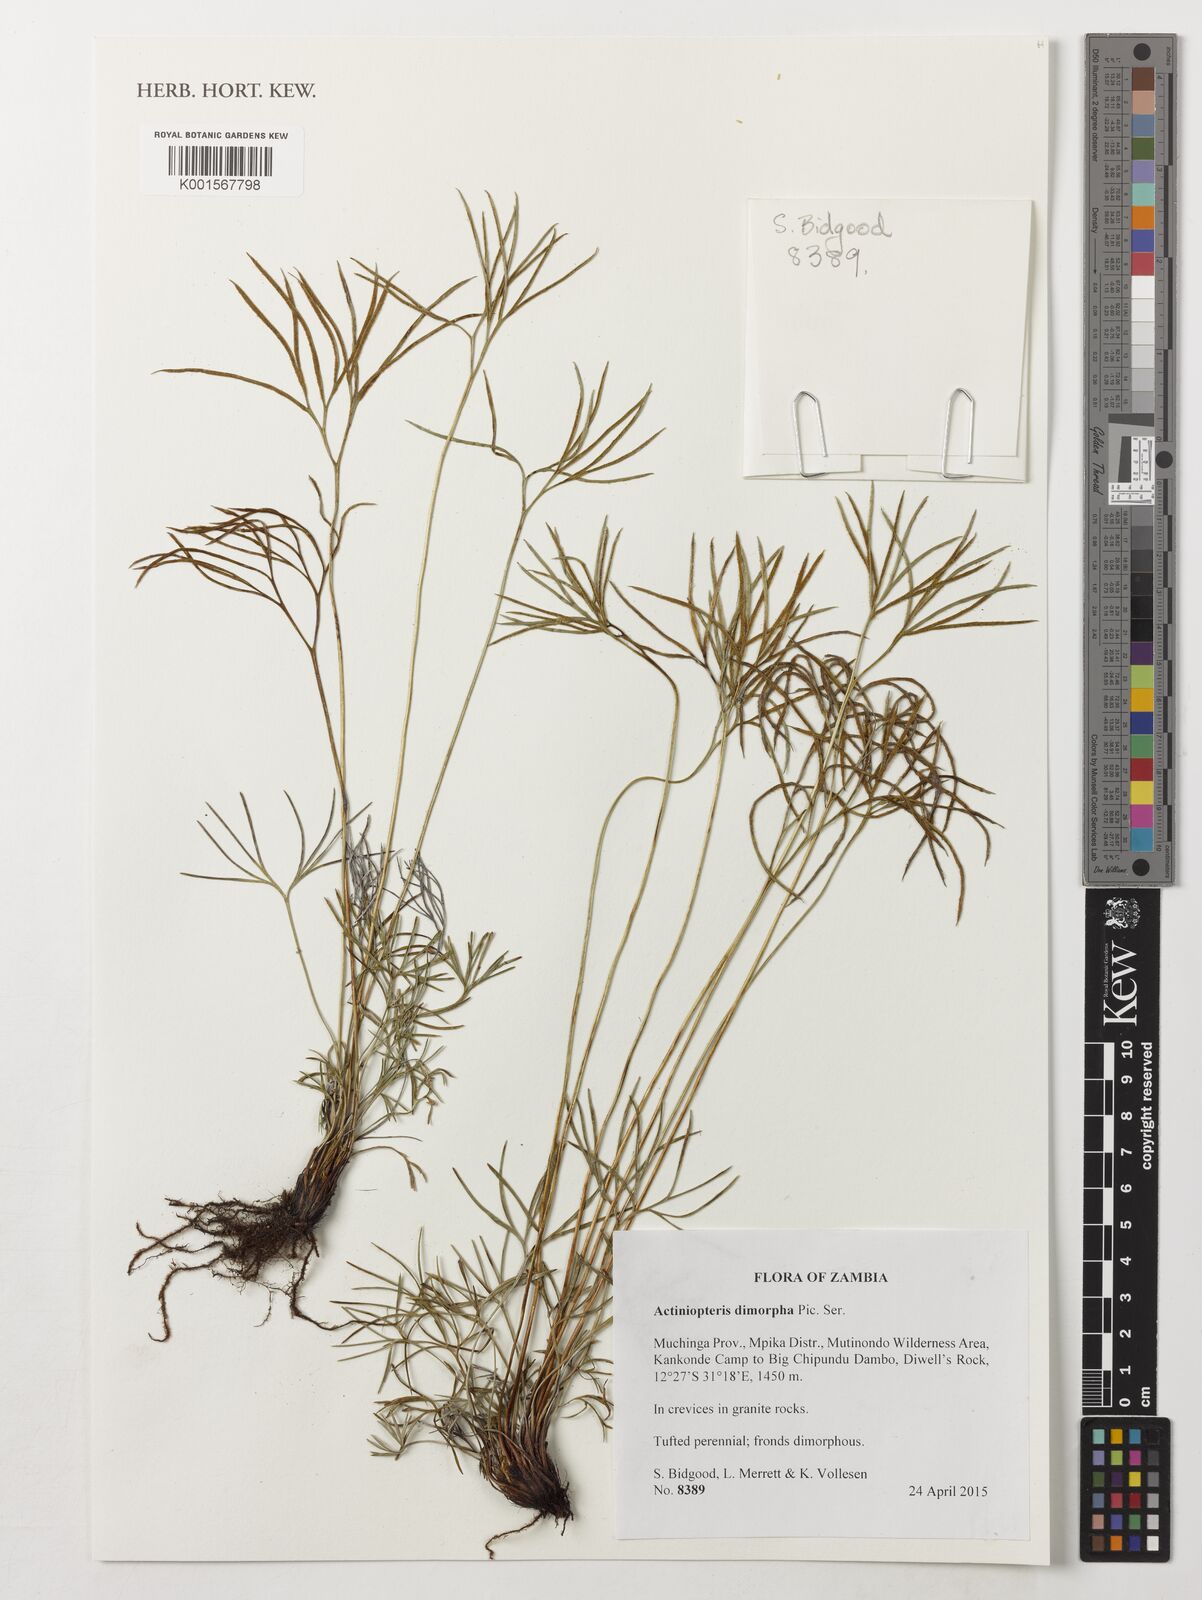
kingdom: Plantae
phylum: Tracheophyta
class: Polypodiopsida
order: Polypodiales
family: Pteridaceae
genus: Actiniopteris
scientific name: Actiniopteris dimorpha
